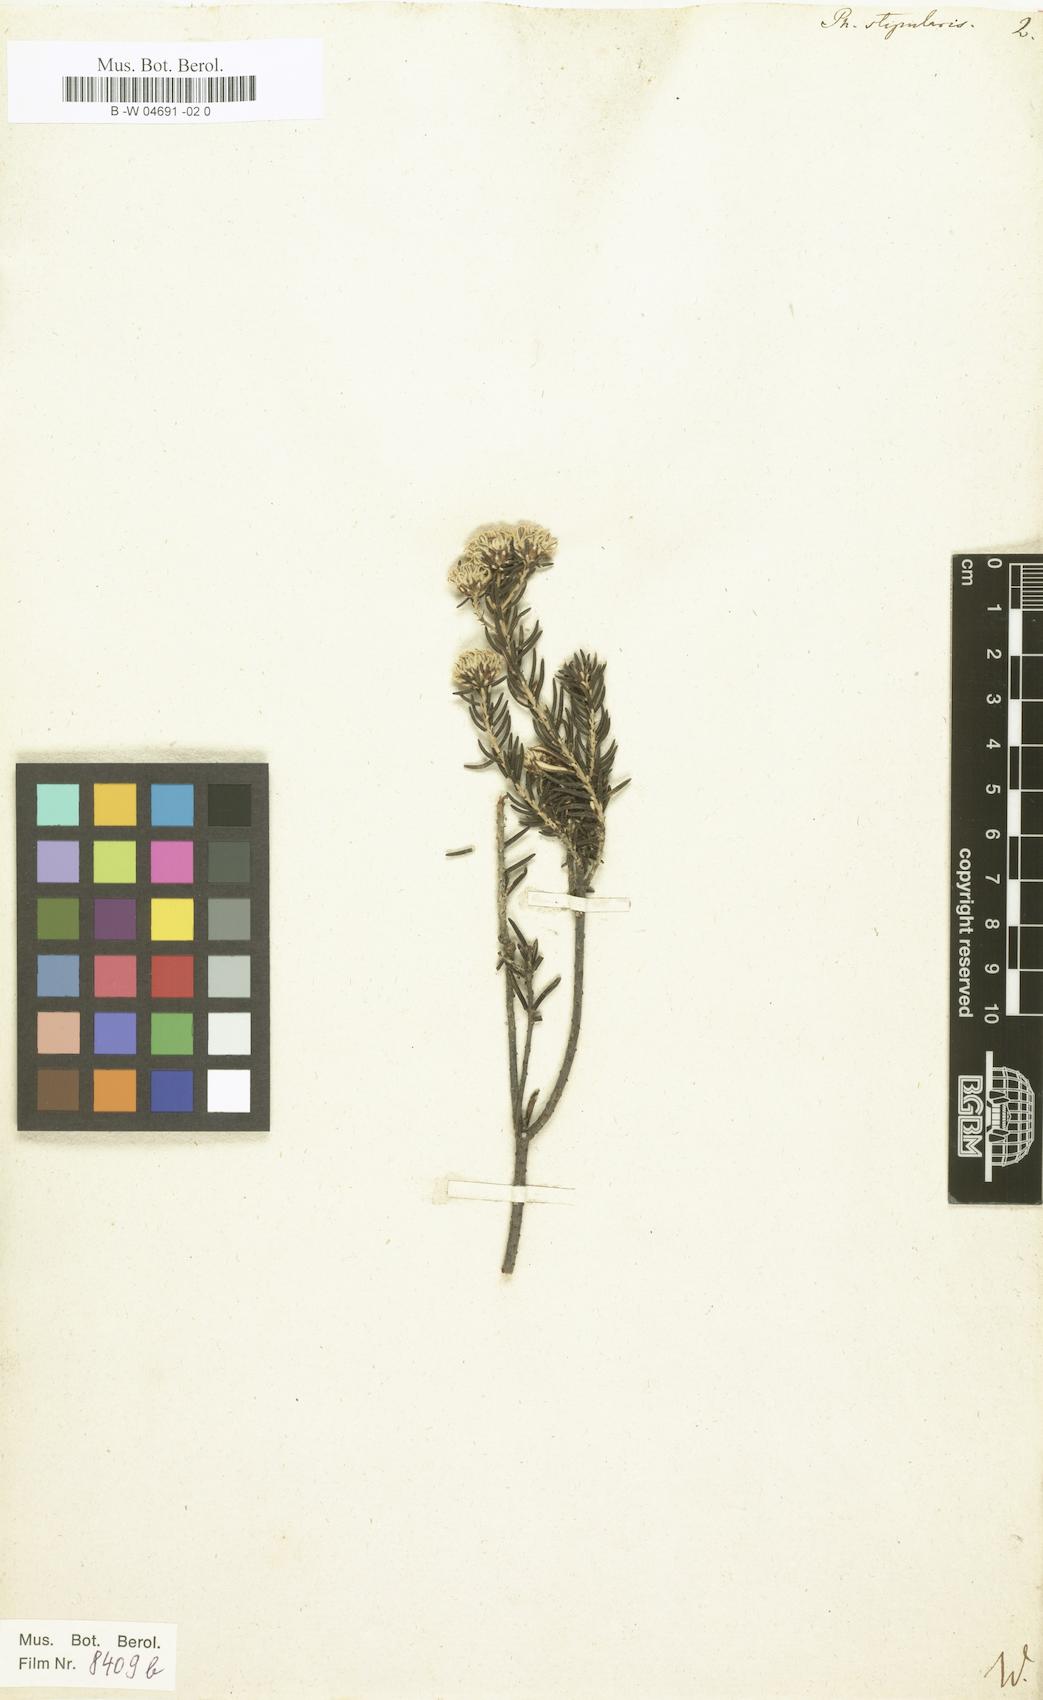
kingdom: Plantae
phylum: Tracheophyta
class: Magnoliopsida
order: Rosales
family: Rhamnaceae
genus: Trichocephalus
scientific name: Trichocephalus stipularis
